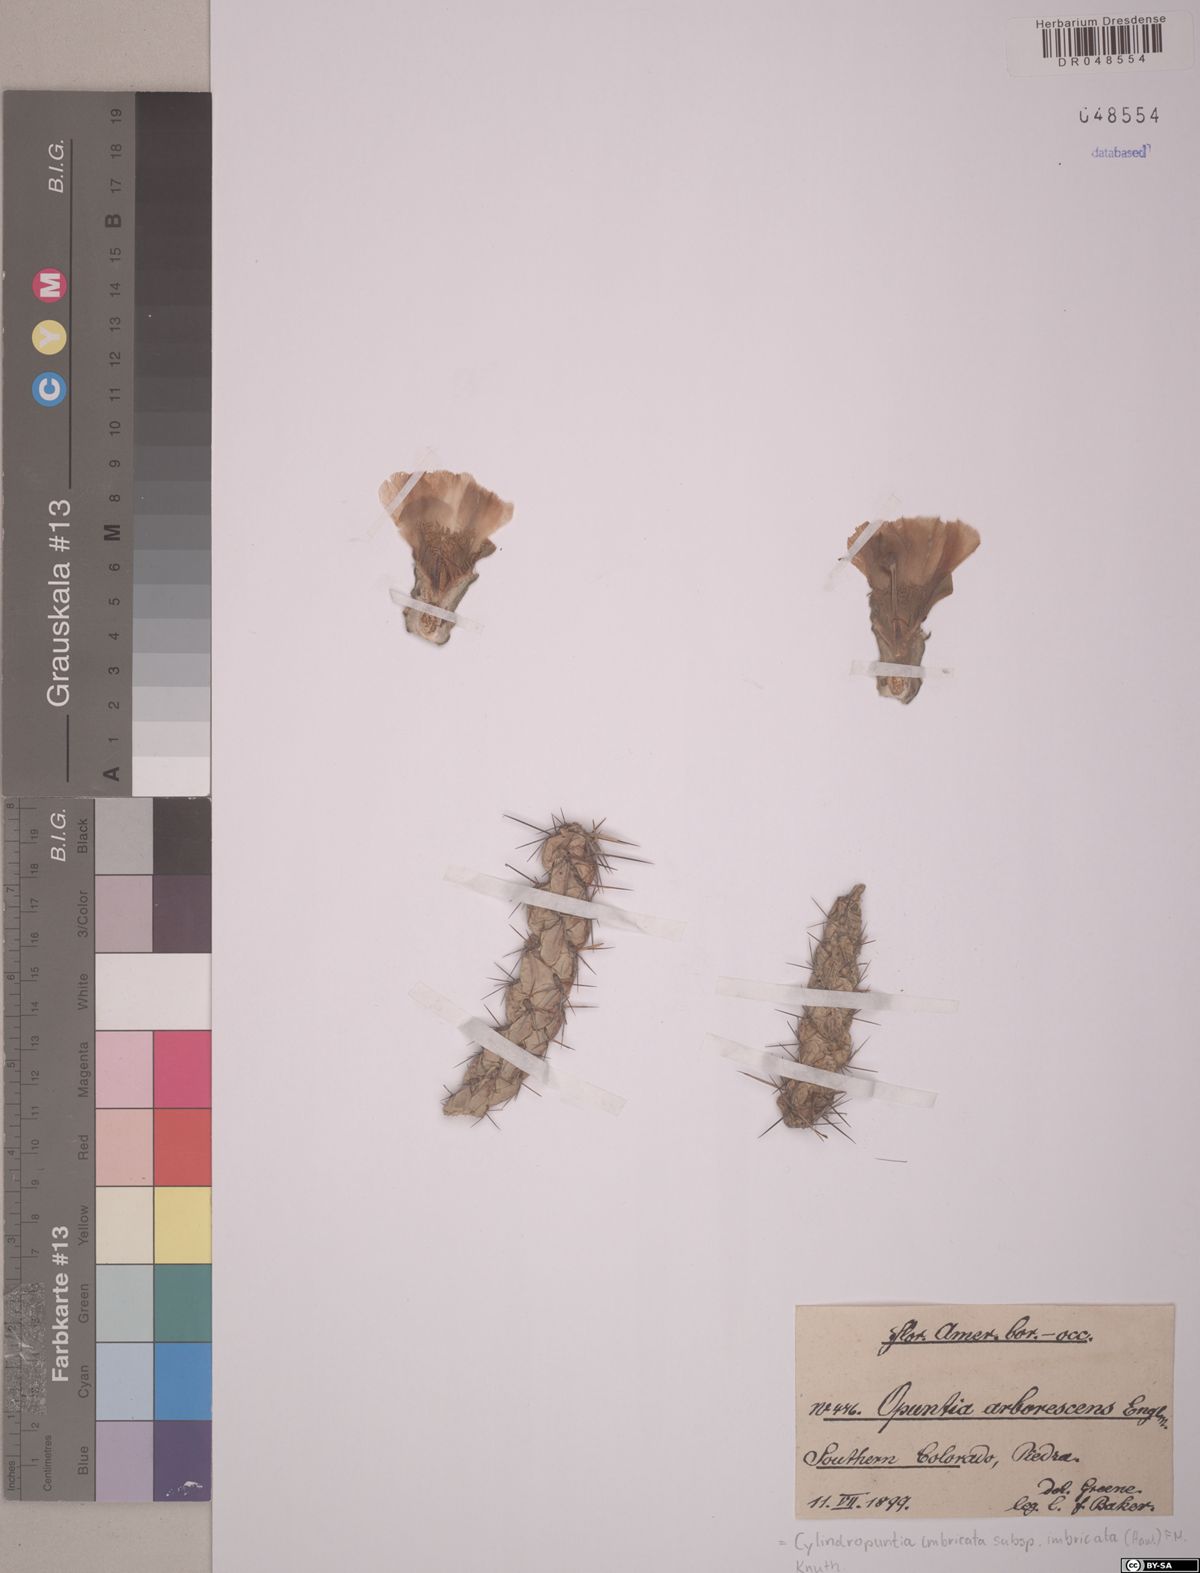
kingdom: Plantae
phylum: Tracheophyta
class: Magnoliopsida
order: Caryophyllales
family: Cactaceae
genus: Cylindropuntia
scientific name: Cylindropuntia imbricata
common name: Candelabrum cactus
